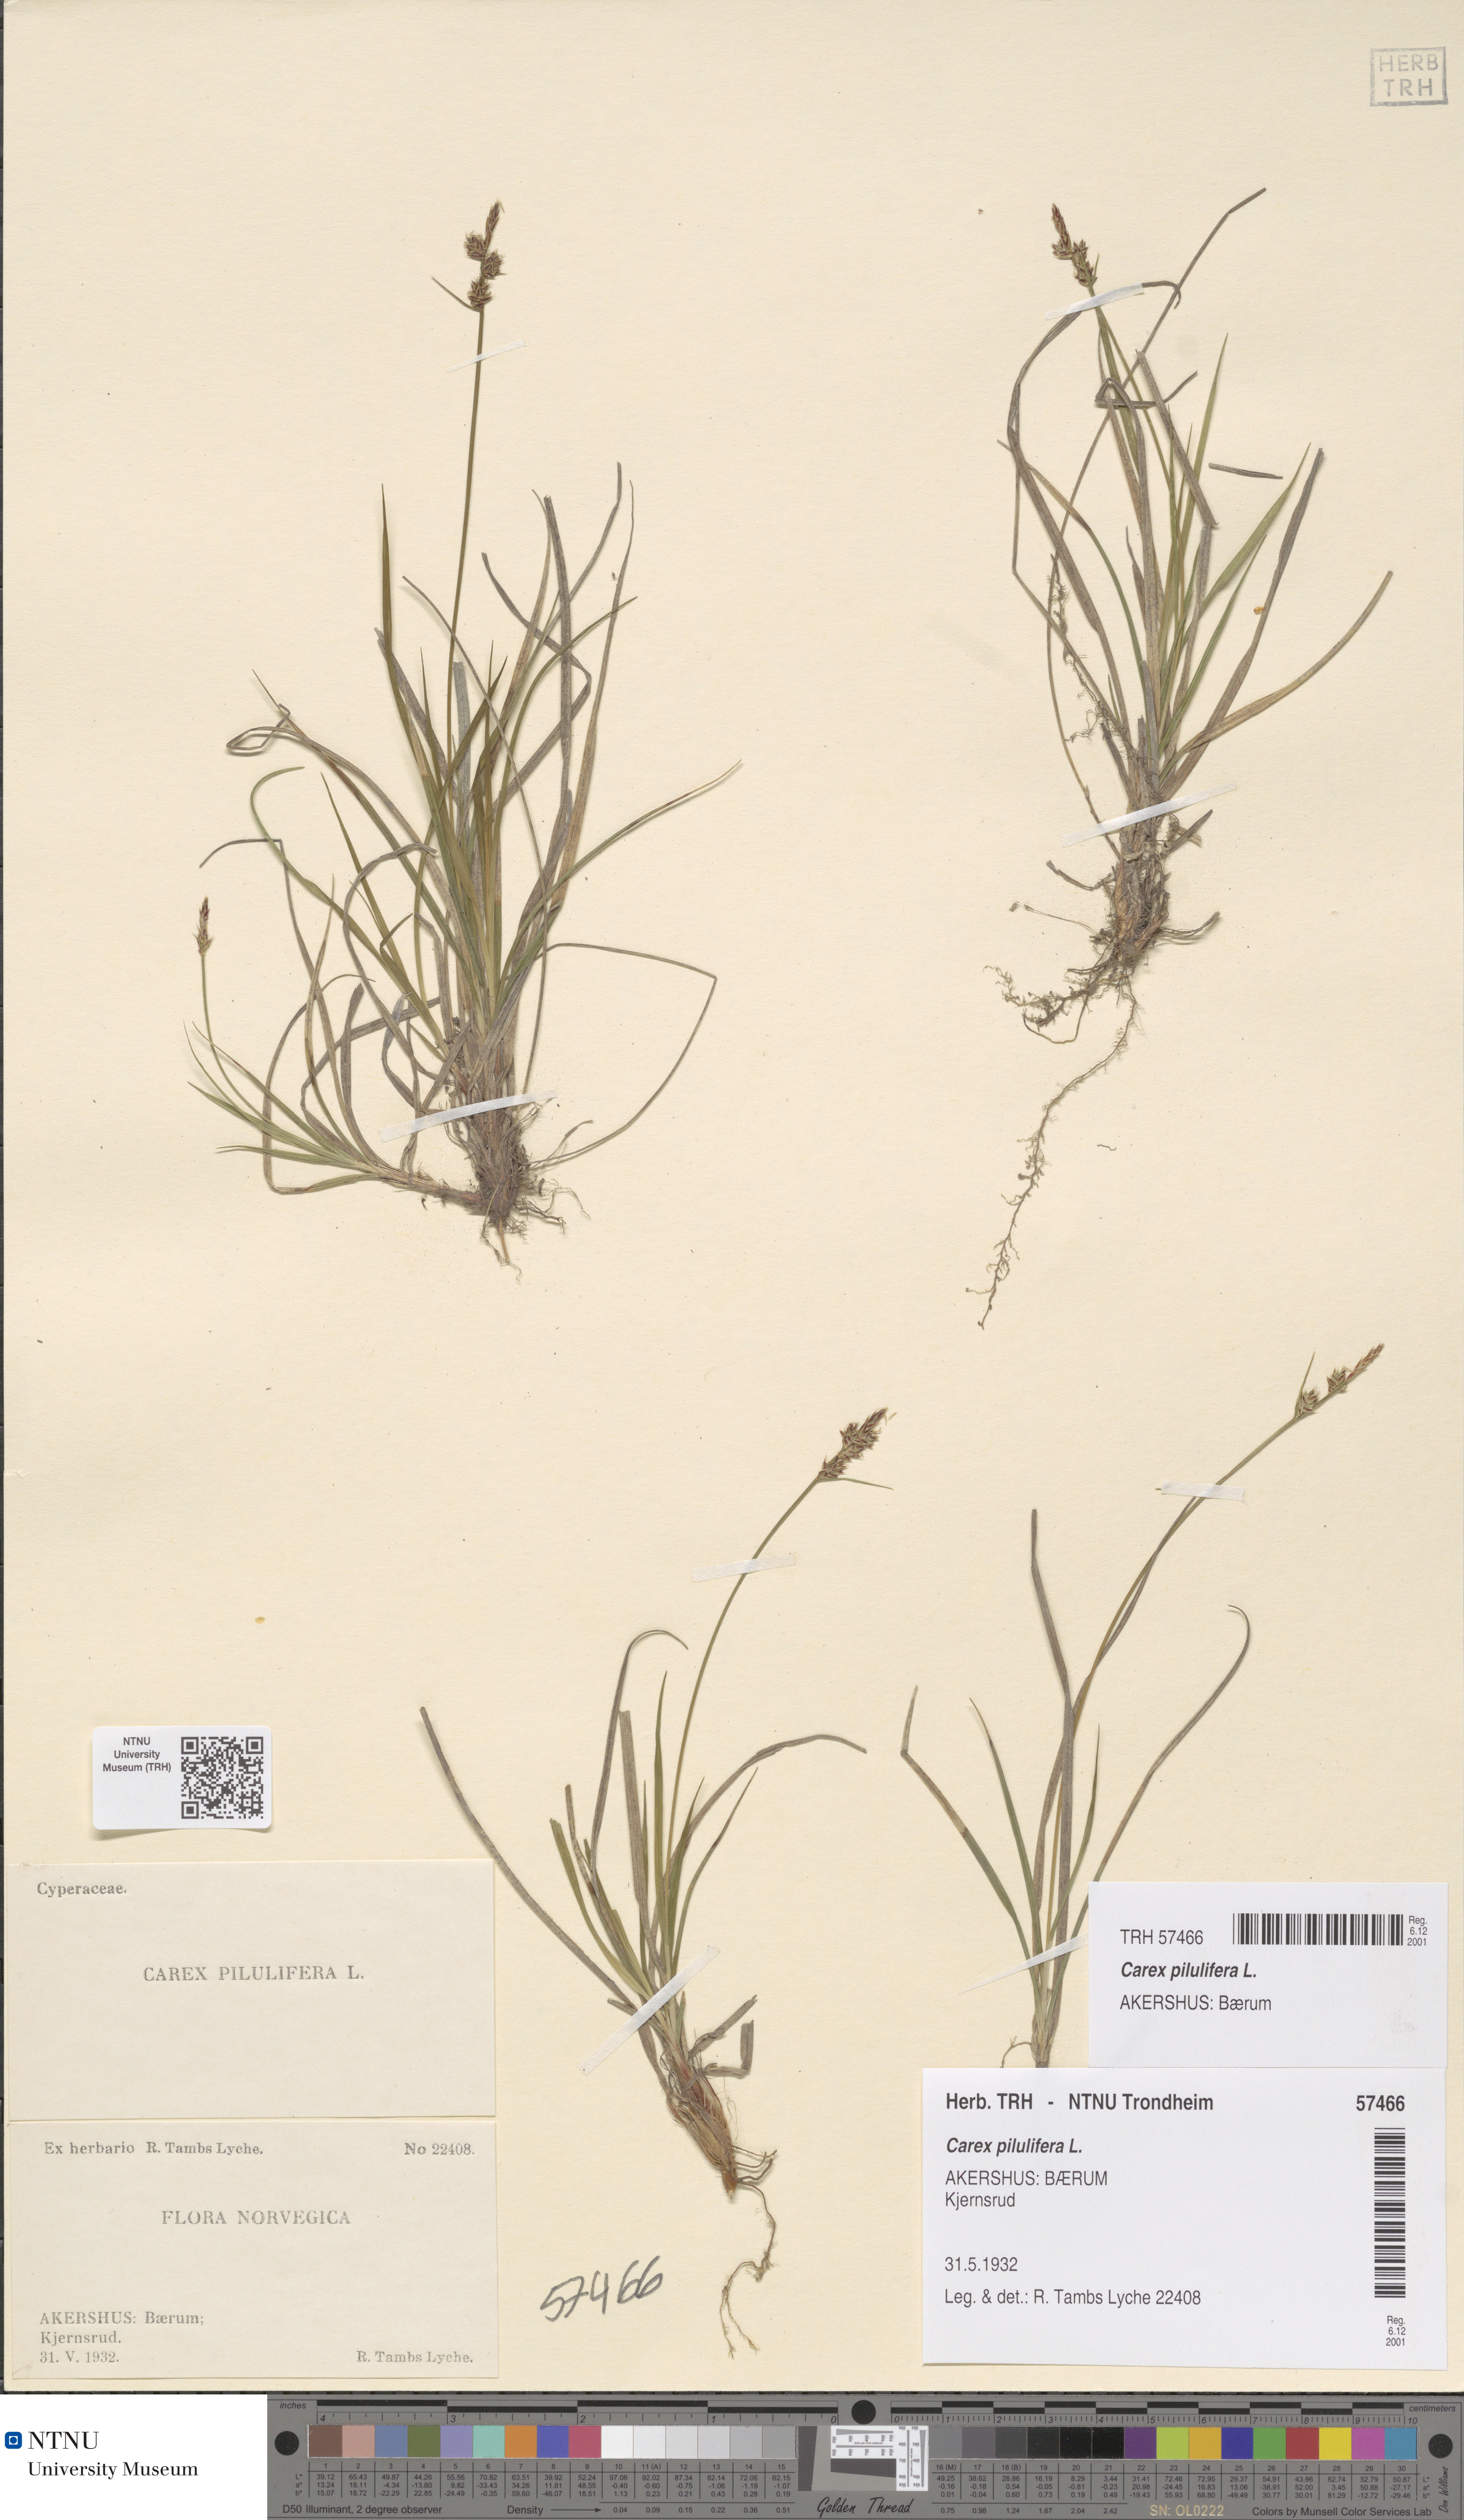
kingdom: Plantae
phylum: Tracheophyta
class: Liliopsida
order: Poales
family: Cyperaceae
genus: Carex
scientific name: Carex pilulifera
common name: Pill sedge
